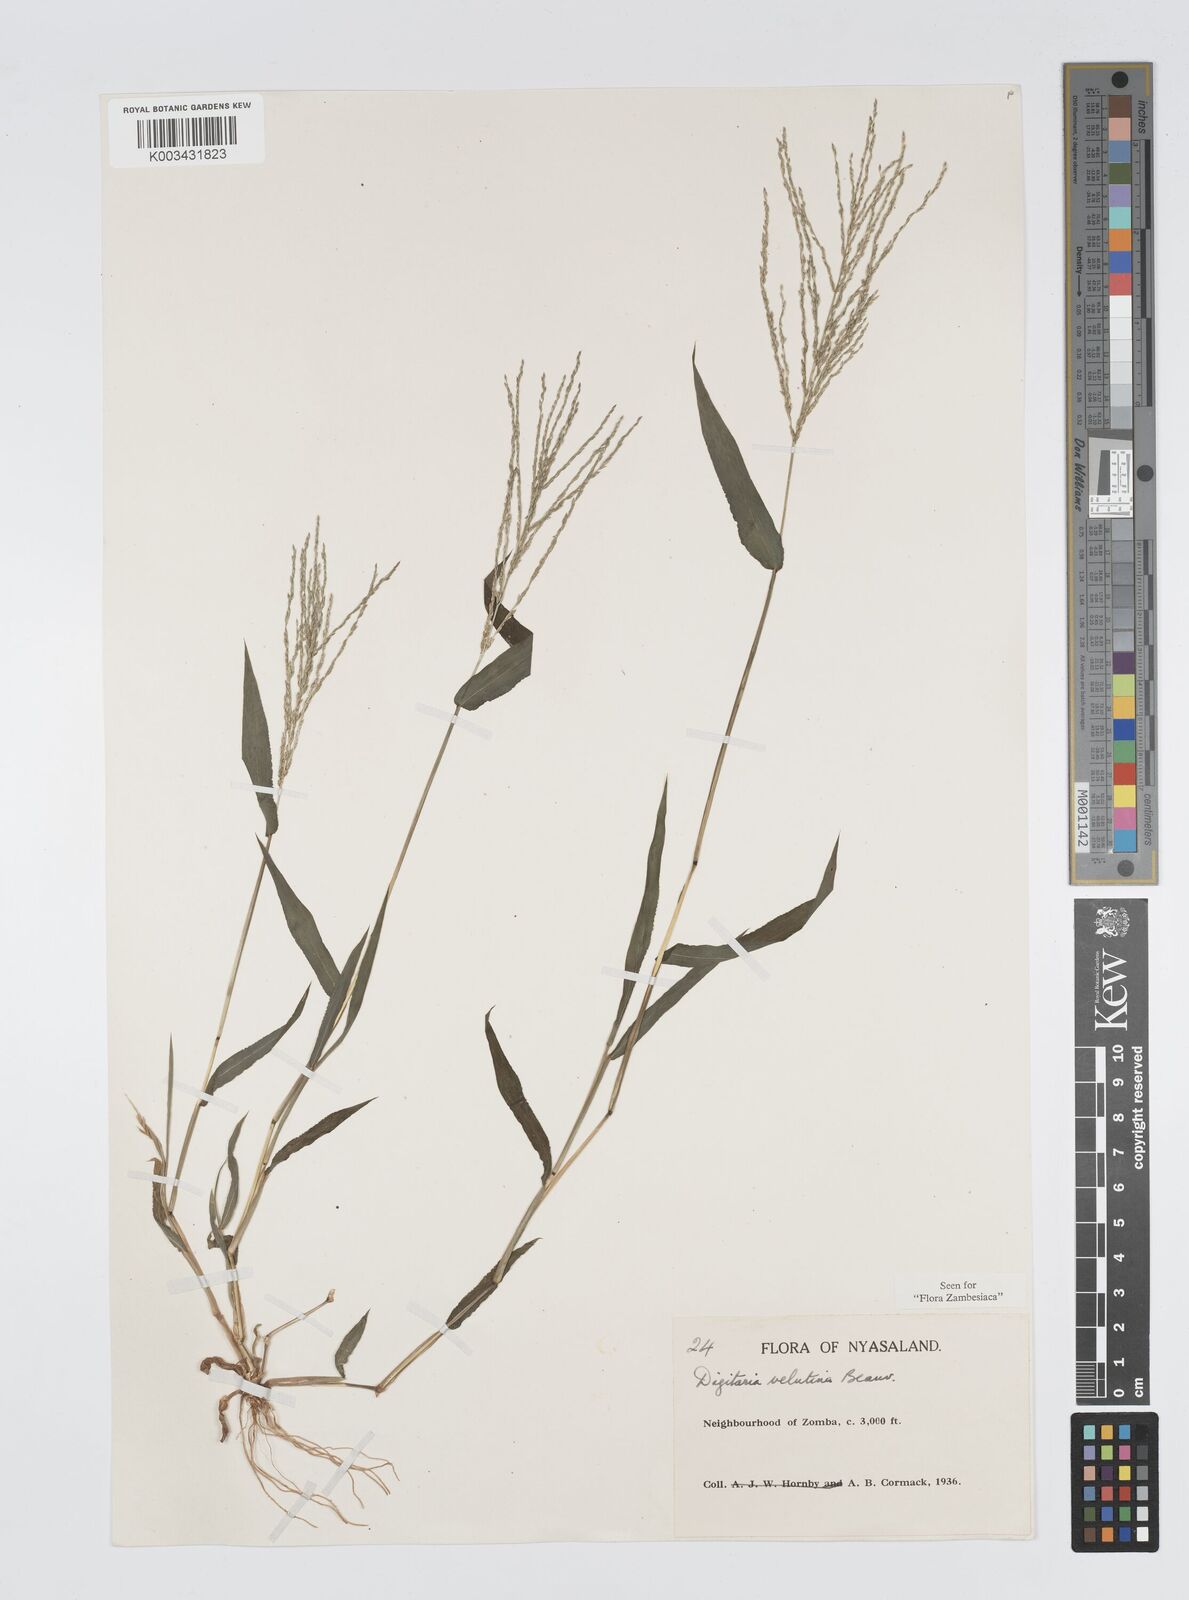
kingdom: Plantae
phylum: Tracheophyta
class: Liliopsida
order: Poales
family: Poaceae
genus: Digitaria
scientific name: Digitaria velutina
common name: Long-plume finger grass
